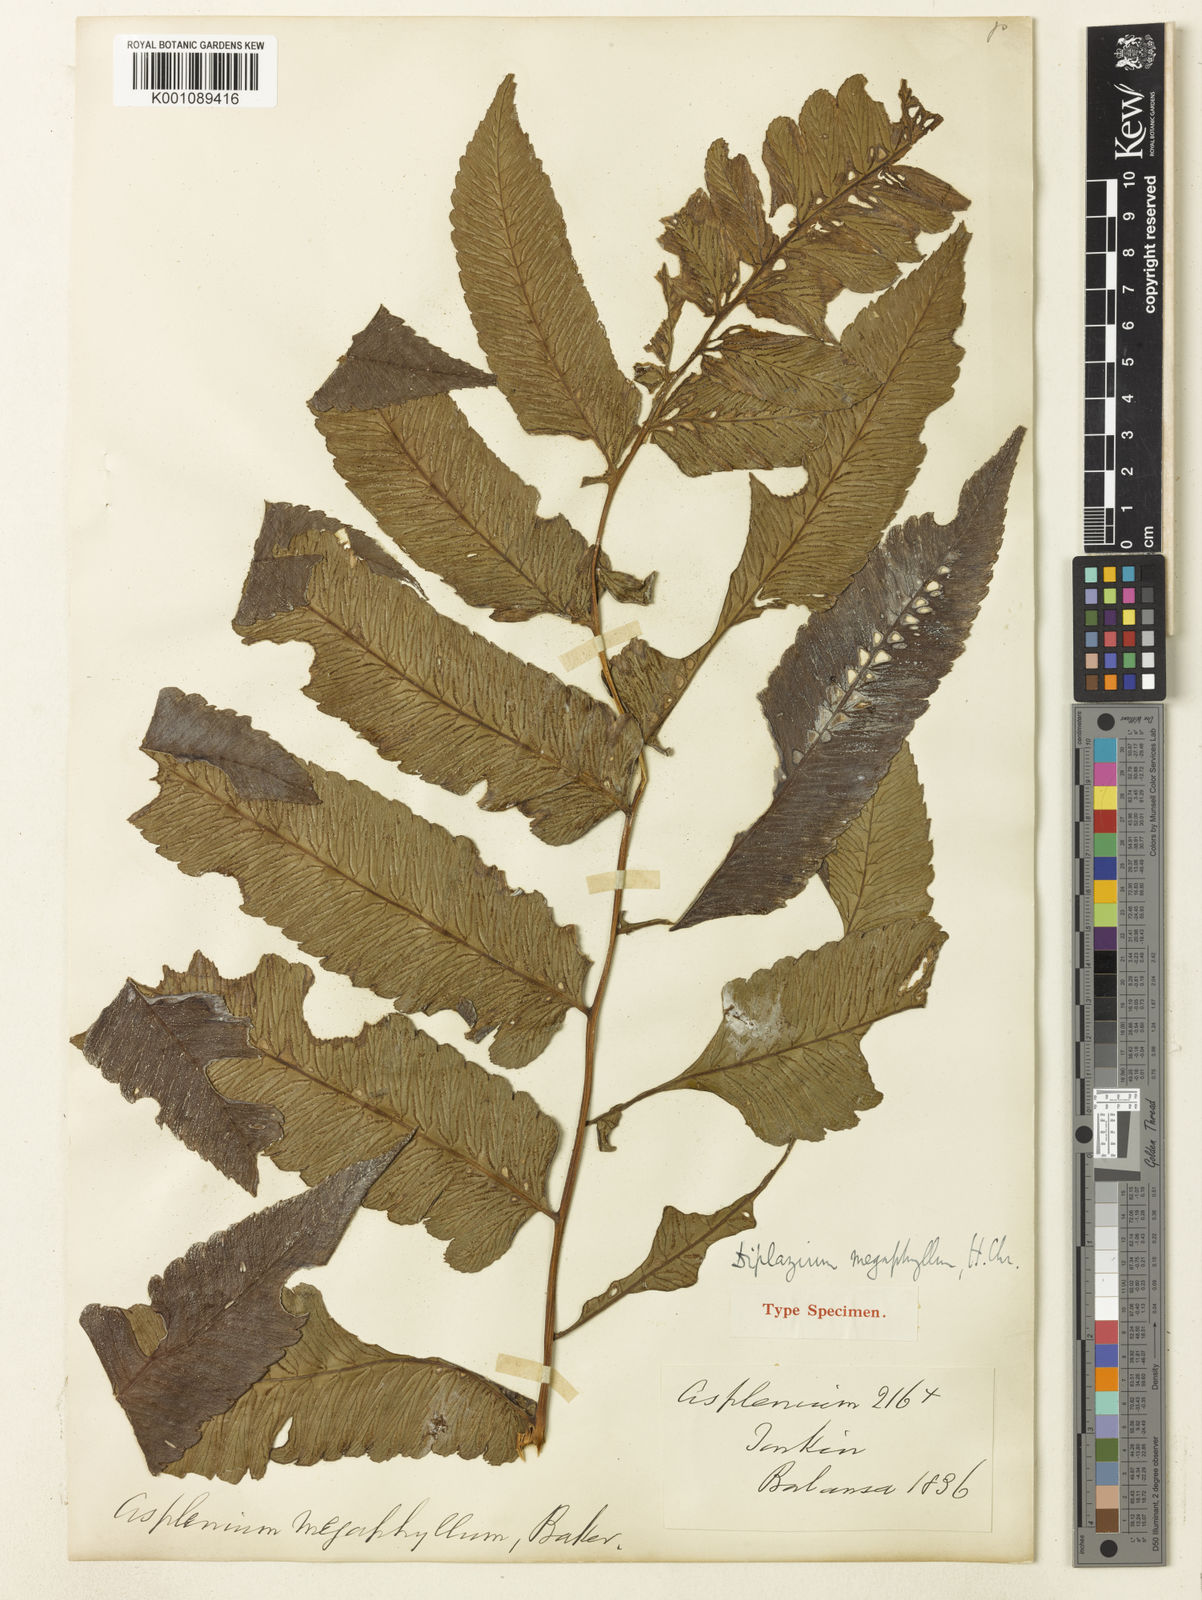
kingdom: Plantae
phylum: Tracheophyta
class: Polypodiopsida
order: Polypodiales
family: Athyriaceae
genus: Diplazium
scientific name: Diplazium megaphyllum
